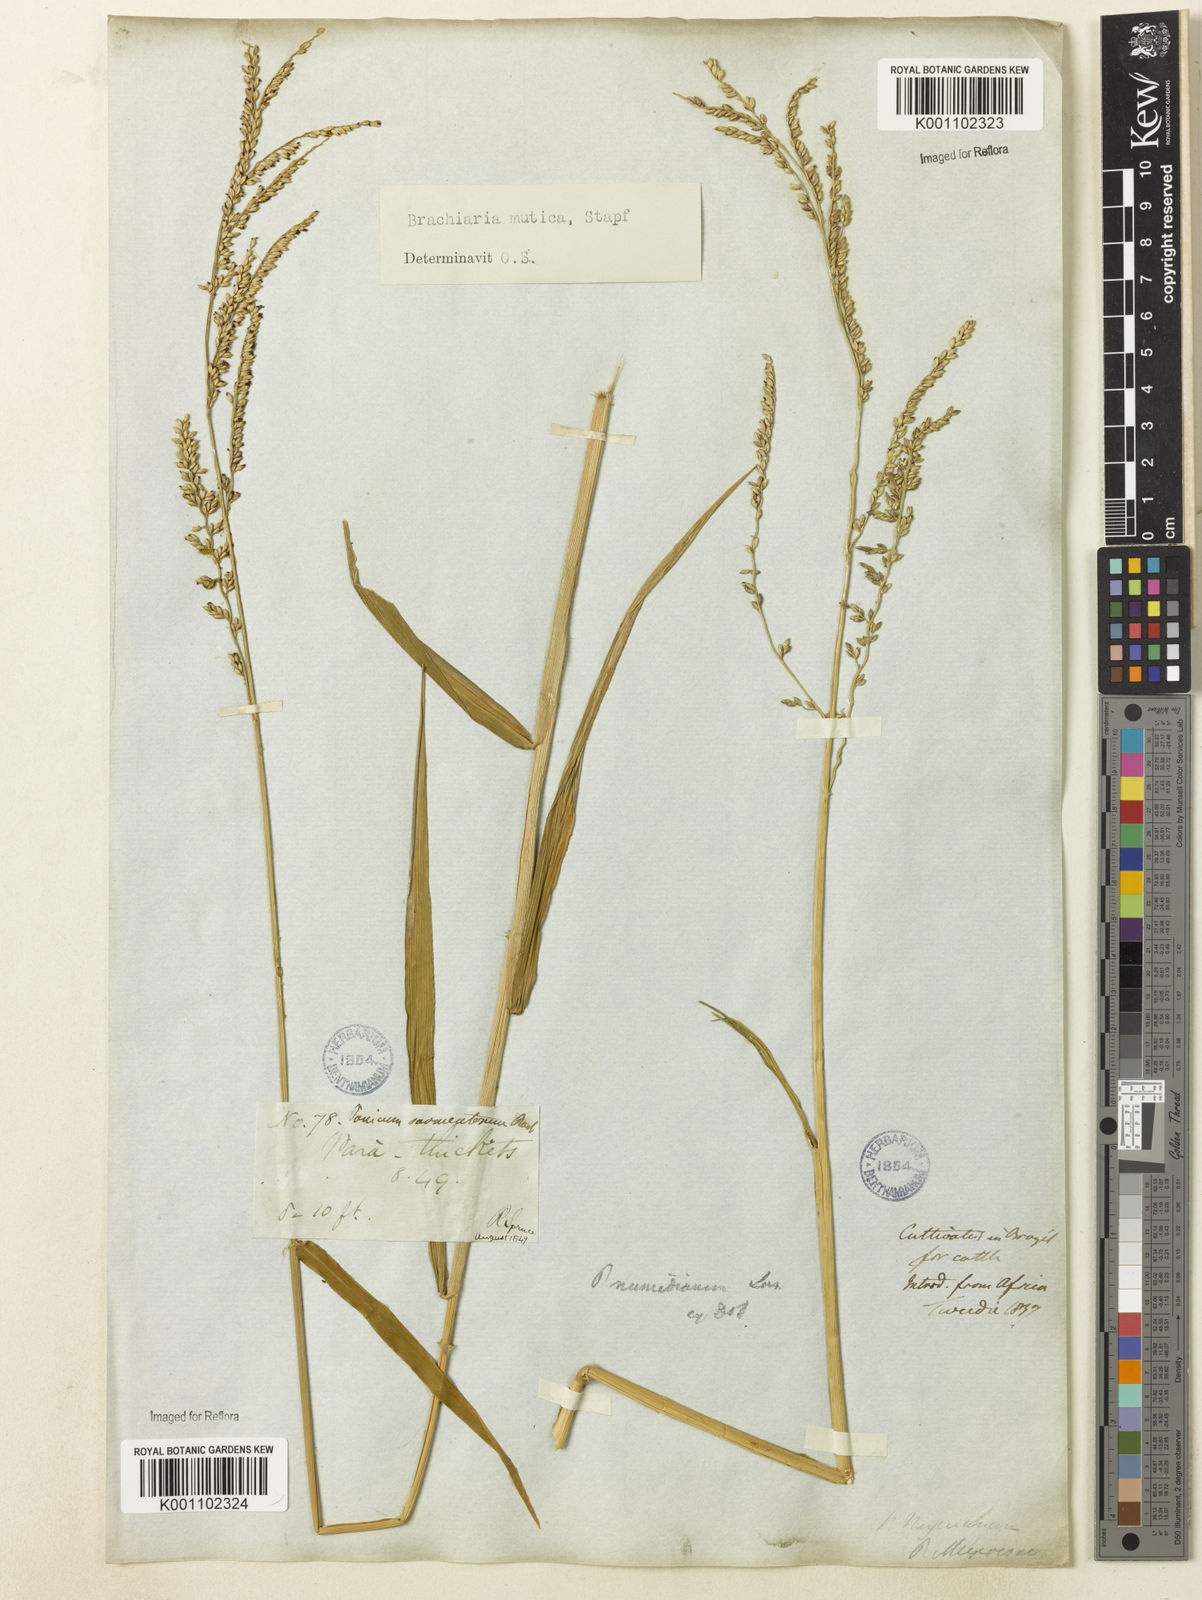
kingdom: Plantae
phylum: Tracheophyta
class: Liliopsida
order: Poales
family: Poaceae
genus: Urochloa
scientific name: Urochloa mutica
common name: Para grass
